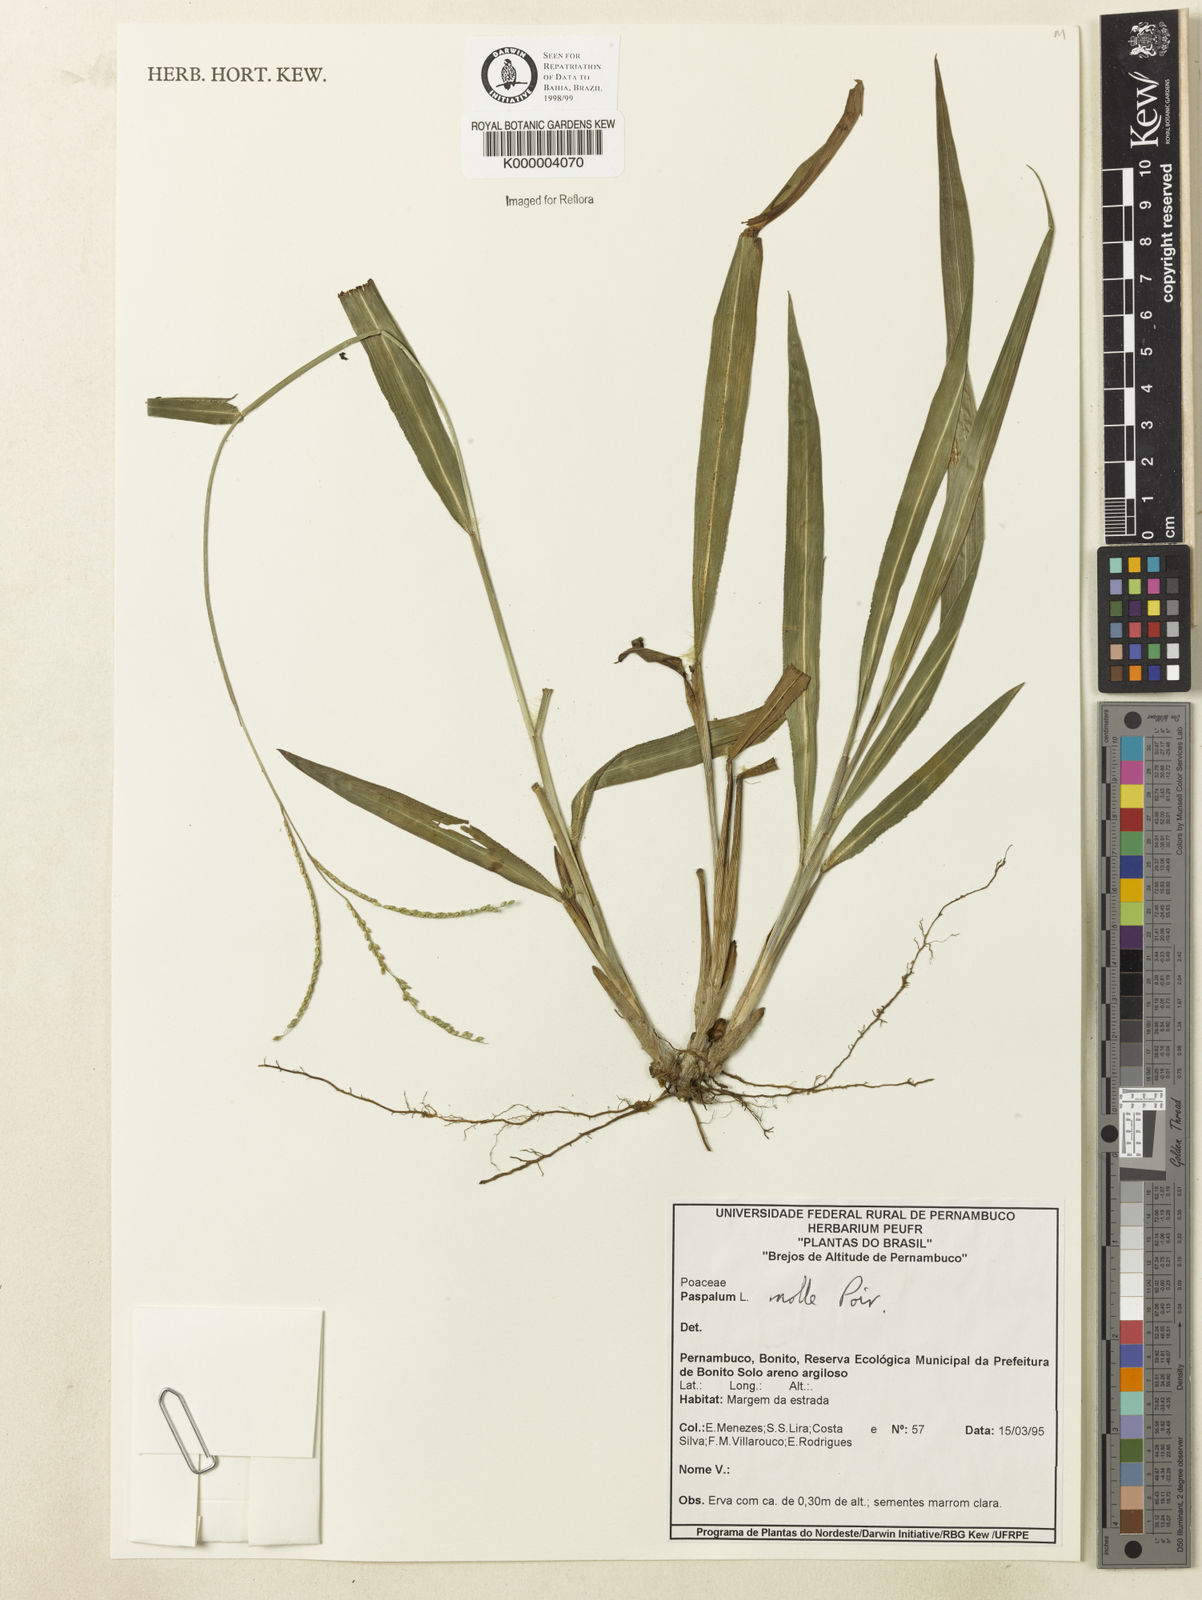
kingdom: Plantae
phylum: Tracheophyta
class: Liliopsida
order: Poales
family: Poaceae
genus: Paspalum
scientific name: Paspalum molle
